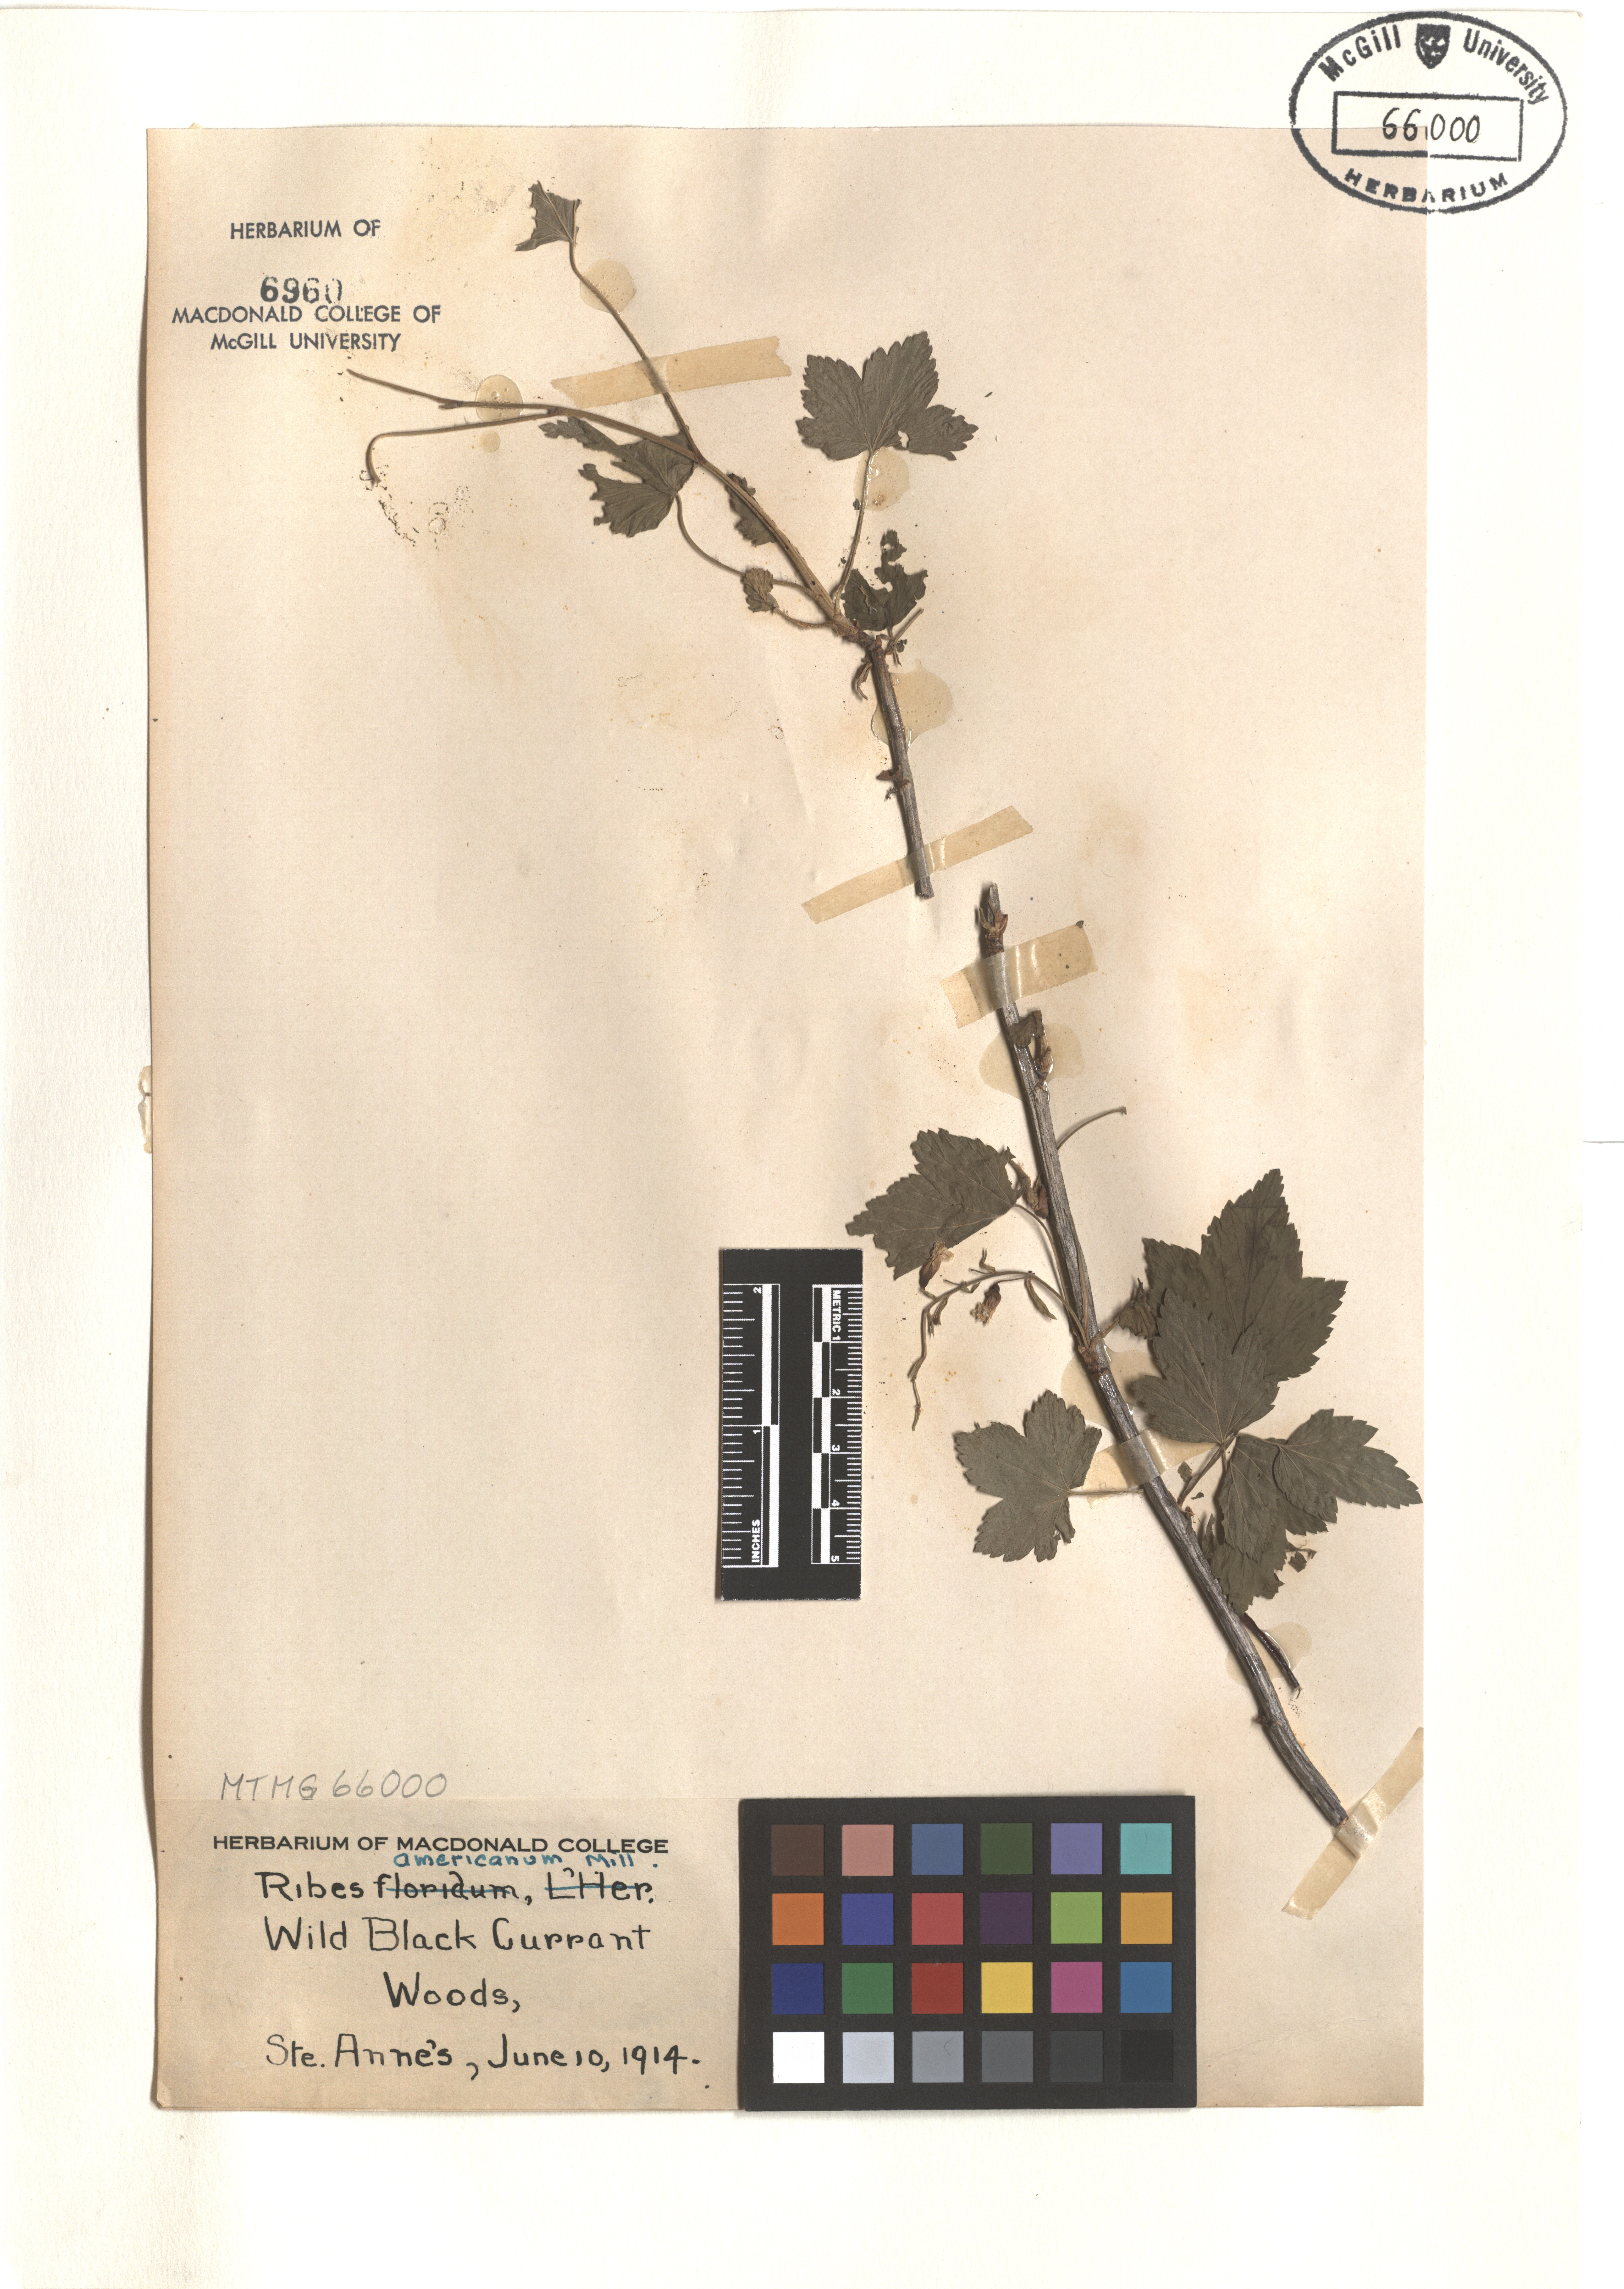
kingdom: Plantae
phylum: Tracheophyta
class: Magnoliopsida
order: Saxifragales
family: Grossulariaceae
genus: Ribes
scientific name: Ribes americanum
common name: American black currant
